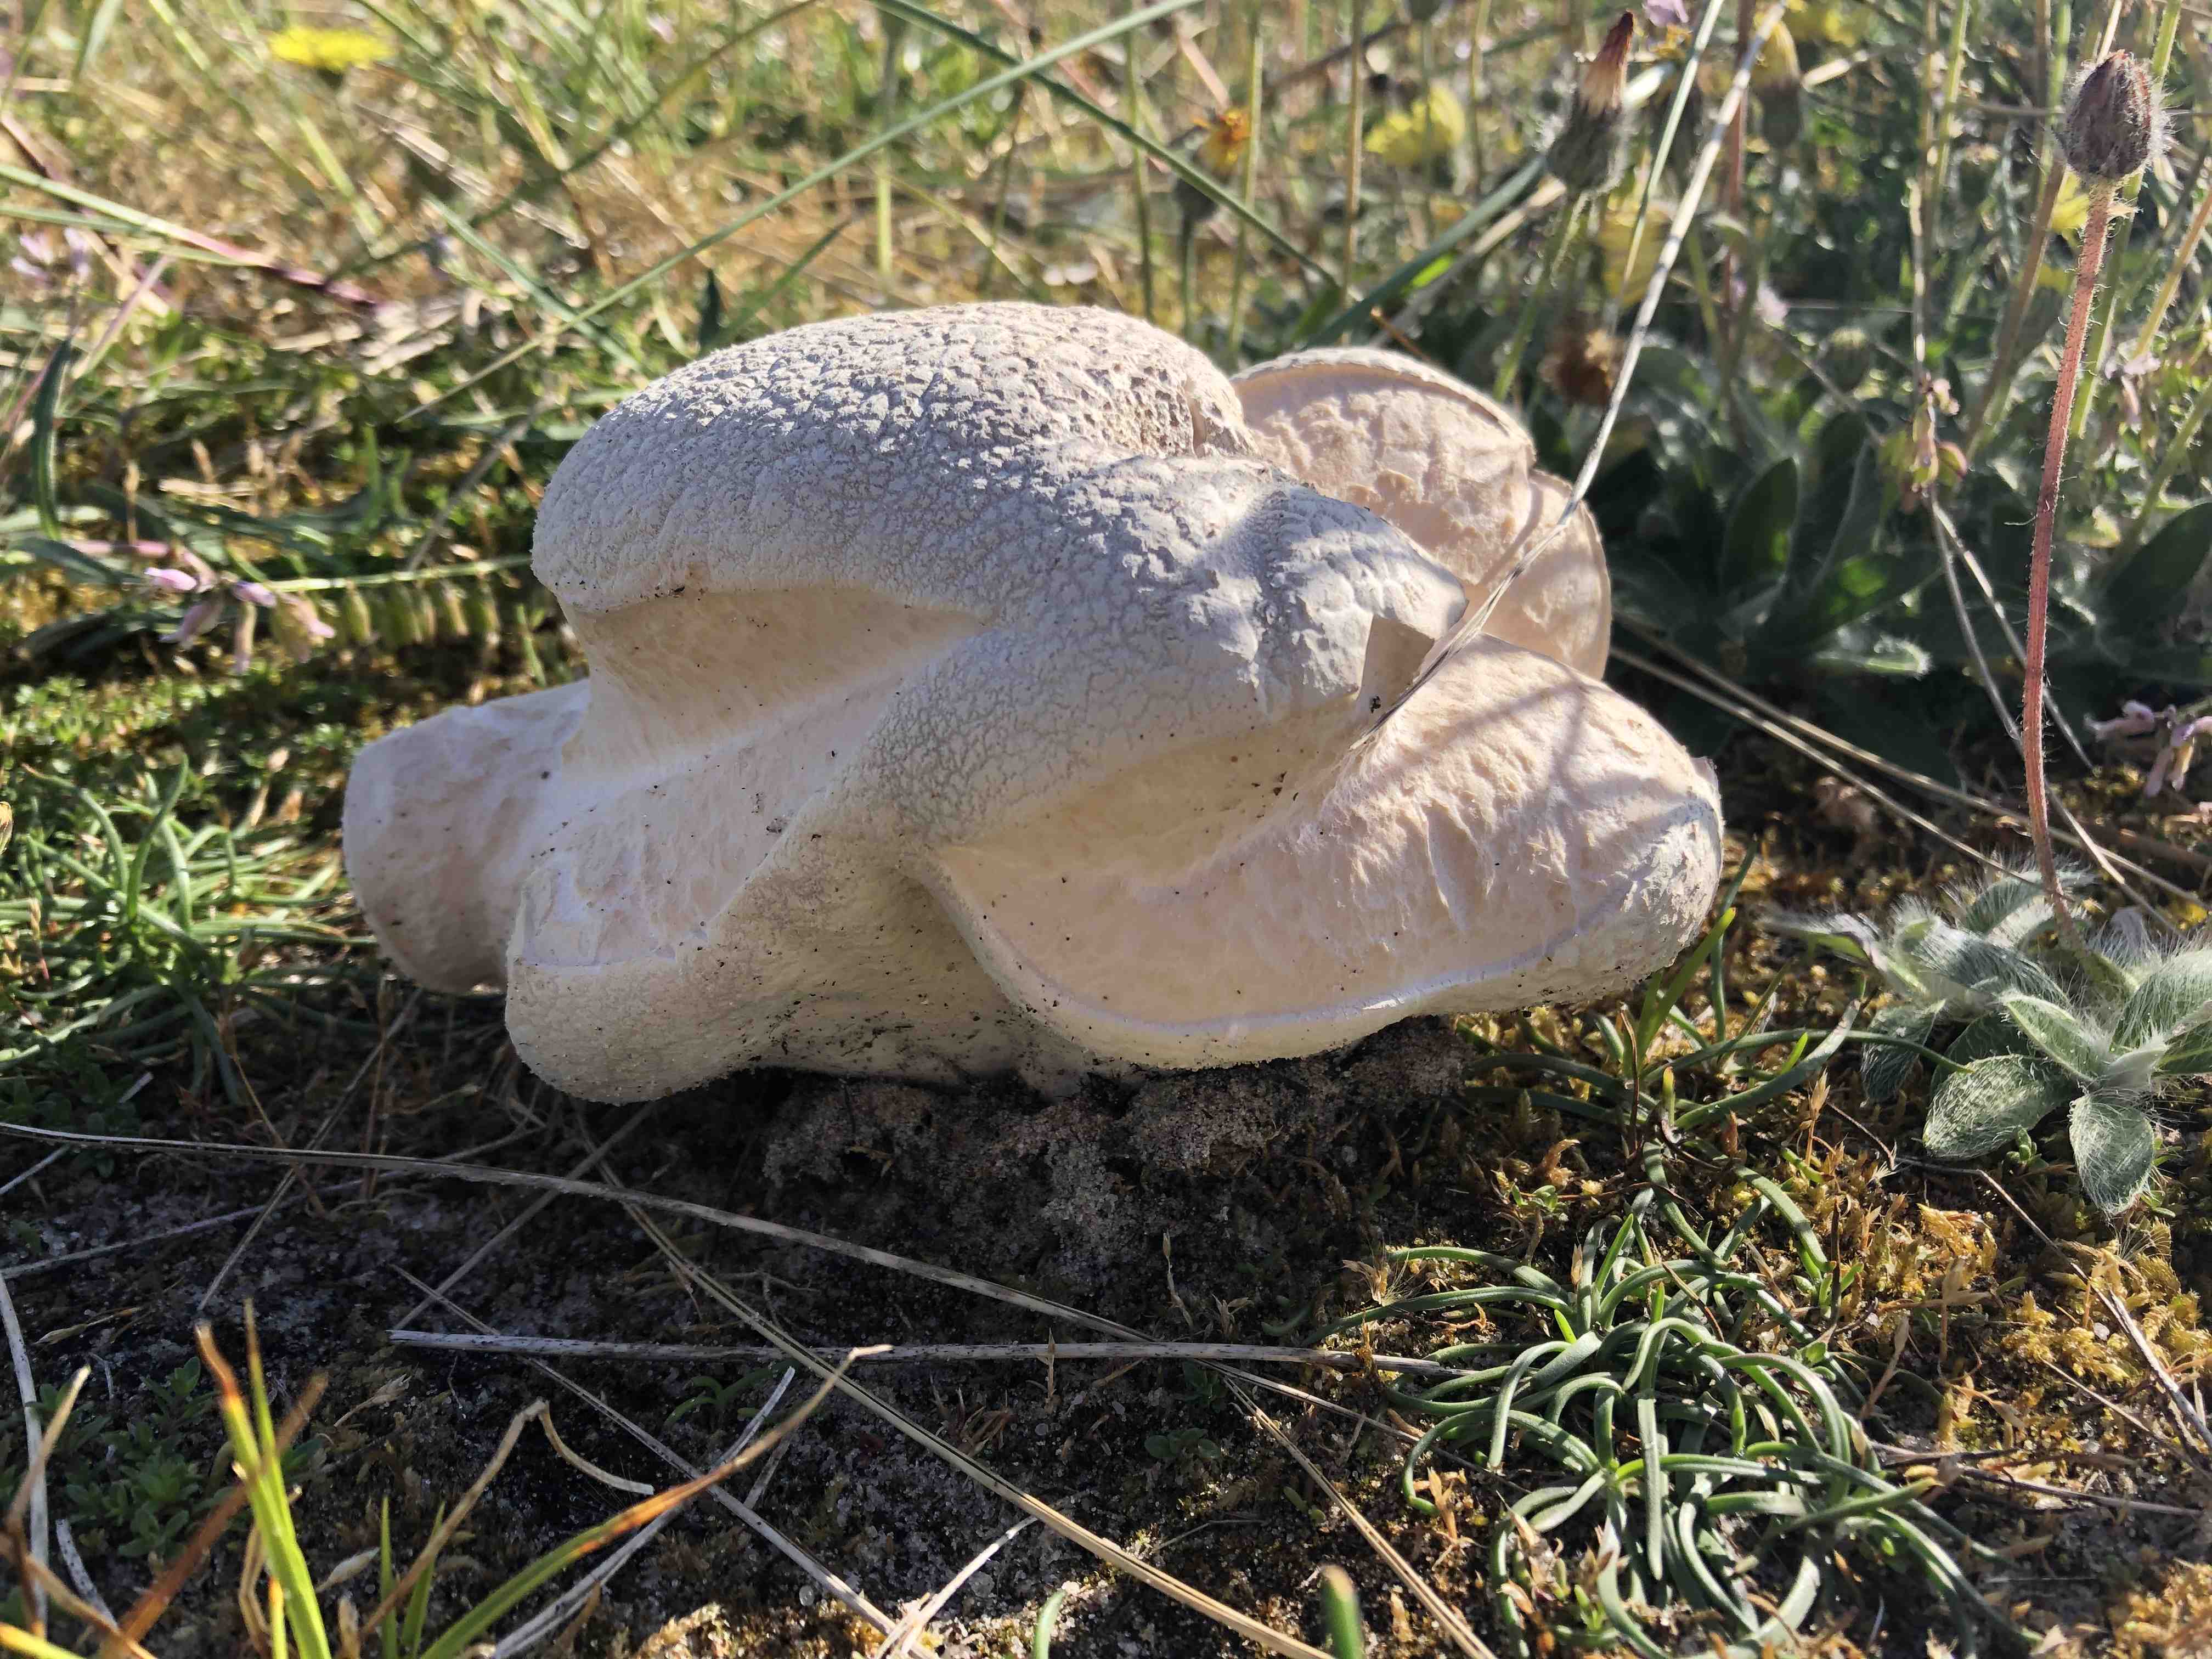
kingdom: Fungi
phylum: Basidiomycota
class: Agaricomycetes
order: Agaricales
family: Lycoperdaceae
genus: Bovistella
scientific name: Bovistella utriformis
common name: skællet støvbold
